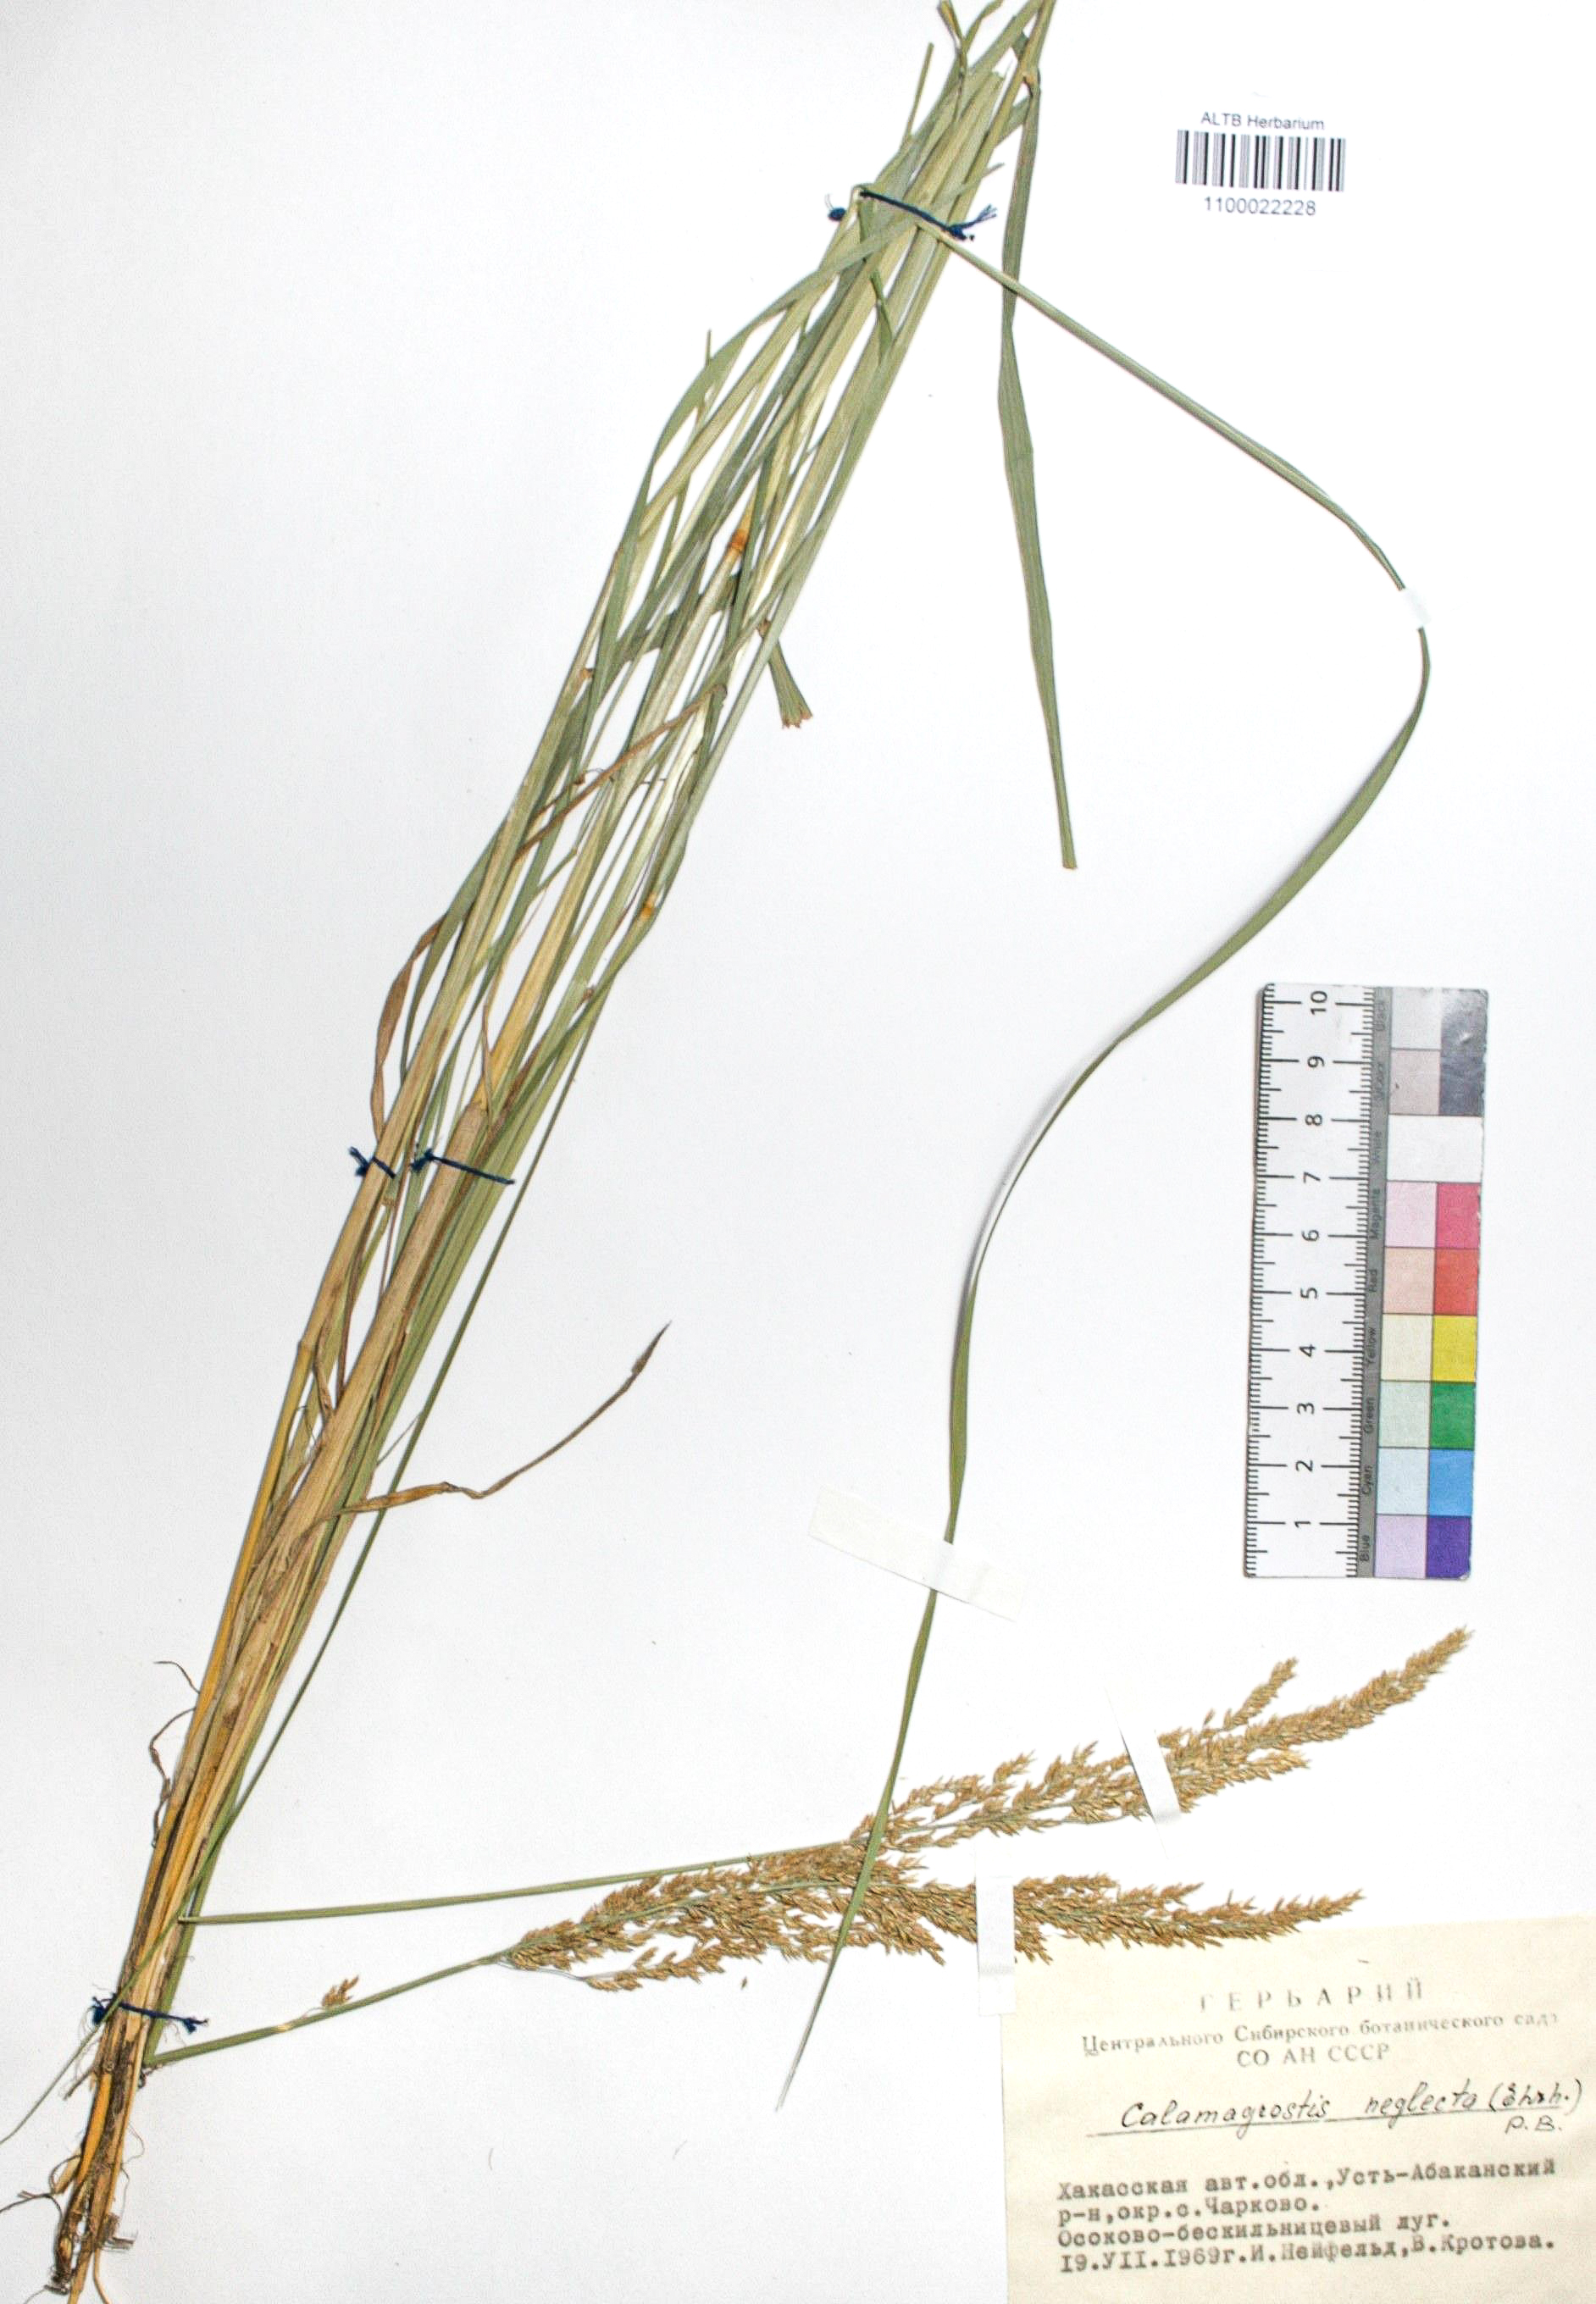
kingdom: Plantae
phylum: Tracheophyta
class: Liliopsida
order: Poales
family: Poaceae
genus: Achnatherum
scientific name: Achnatherum calamagrostis
